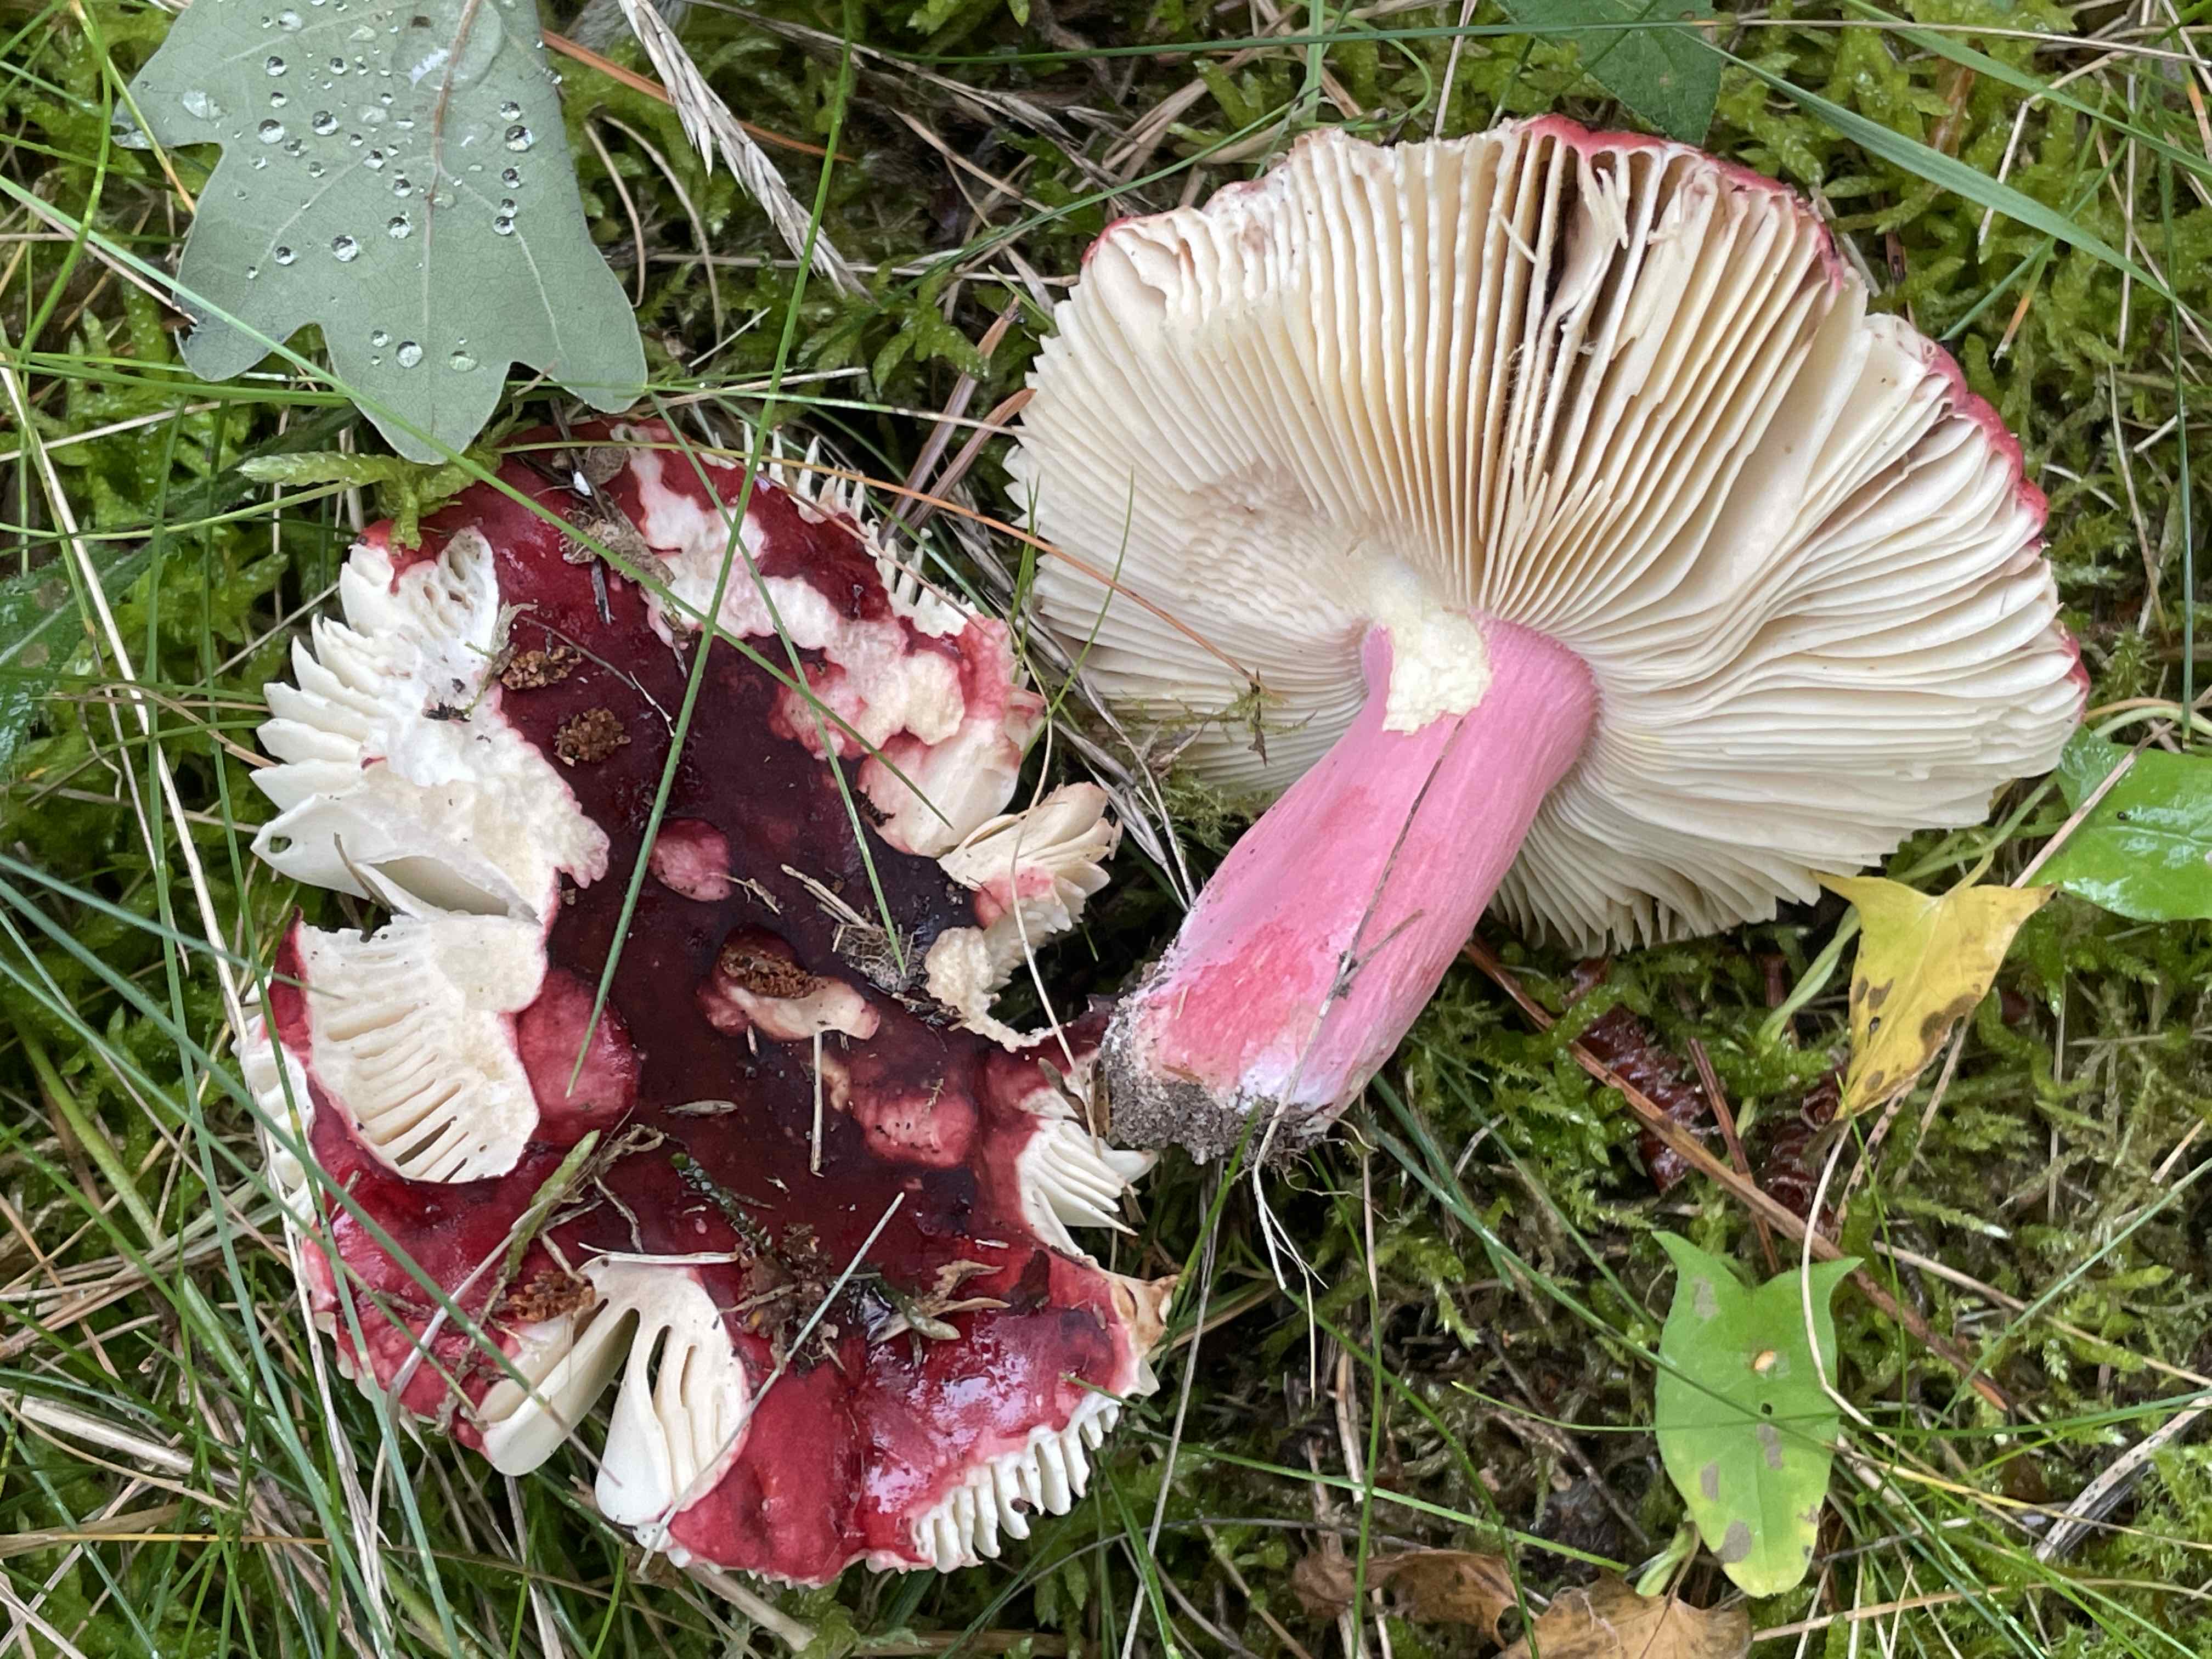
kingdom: Fungi
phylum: Basidiomycota
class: Agaricomycetes
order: Russulales
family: Russulaceae
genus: Russula
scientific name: Russula xerampelina
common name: hummer-skørhat
